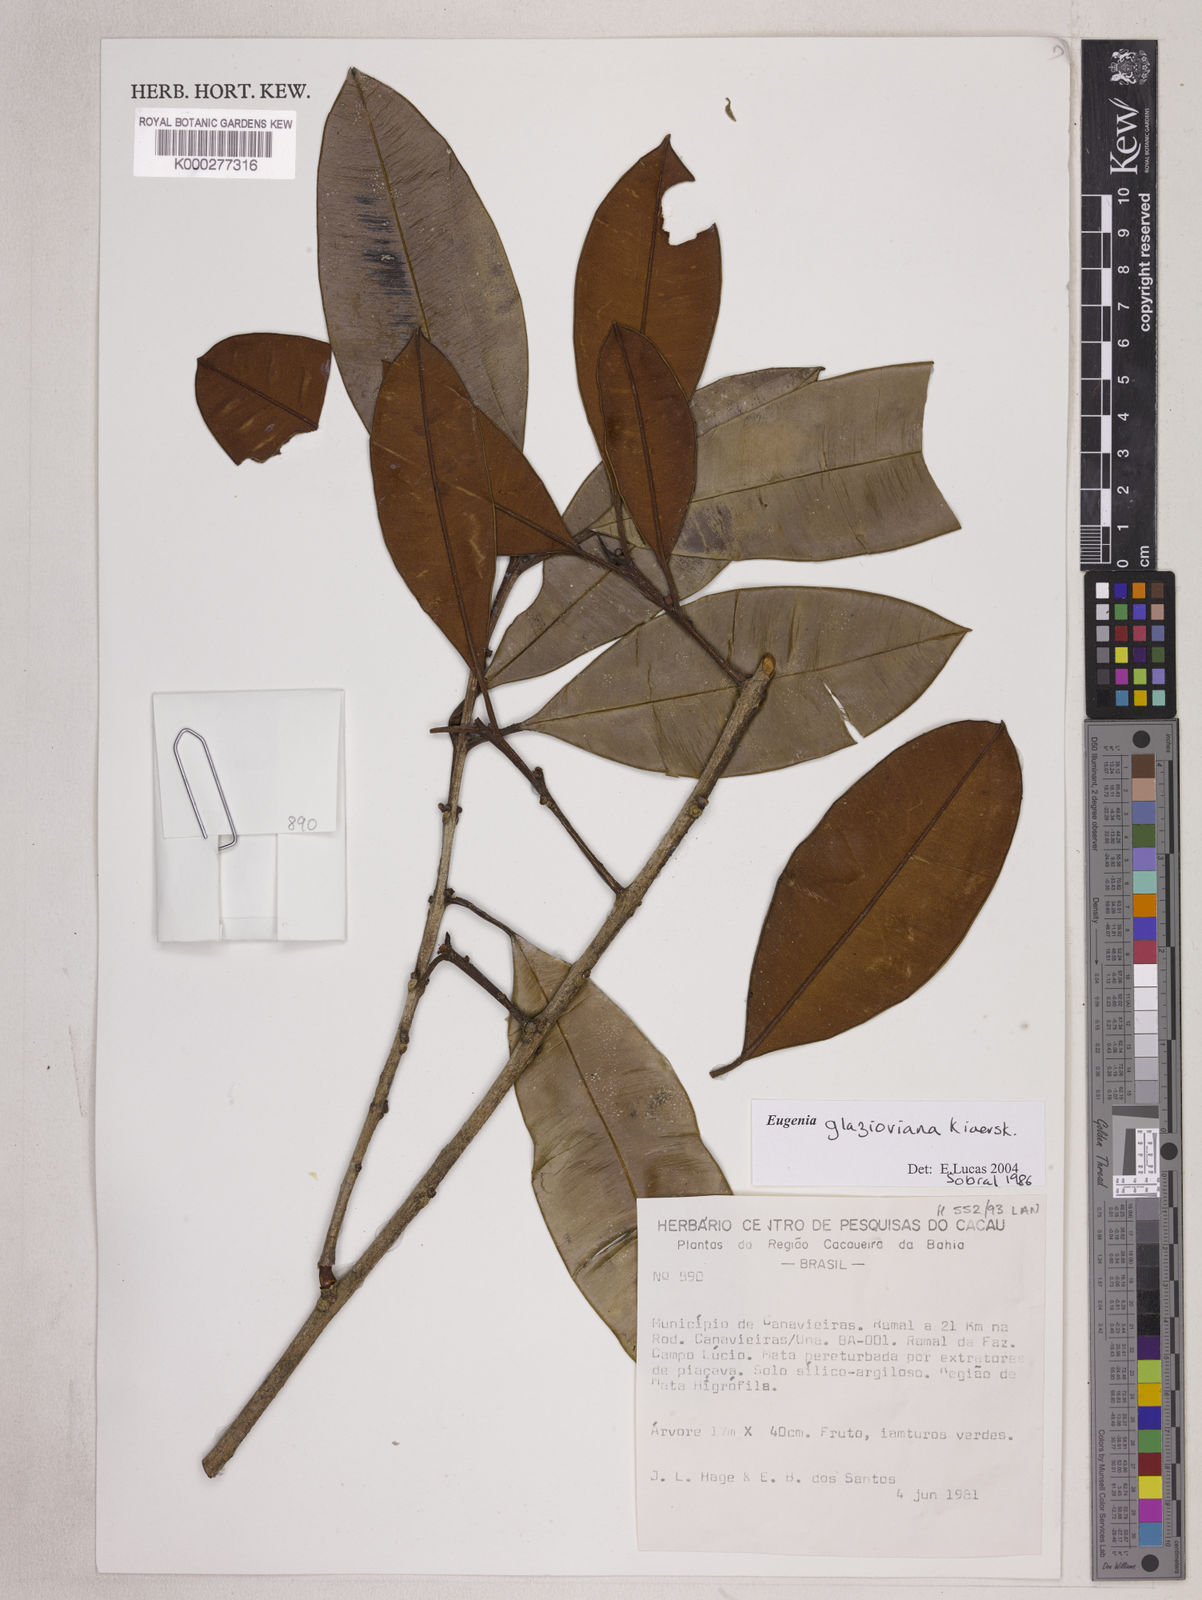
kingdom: Plantae
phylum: Tracheophyta
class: Magnoliopsida
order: Myrtales
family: Myrtaceae
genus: Eugenia
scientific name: Eugenia francavilleana
